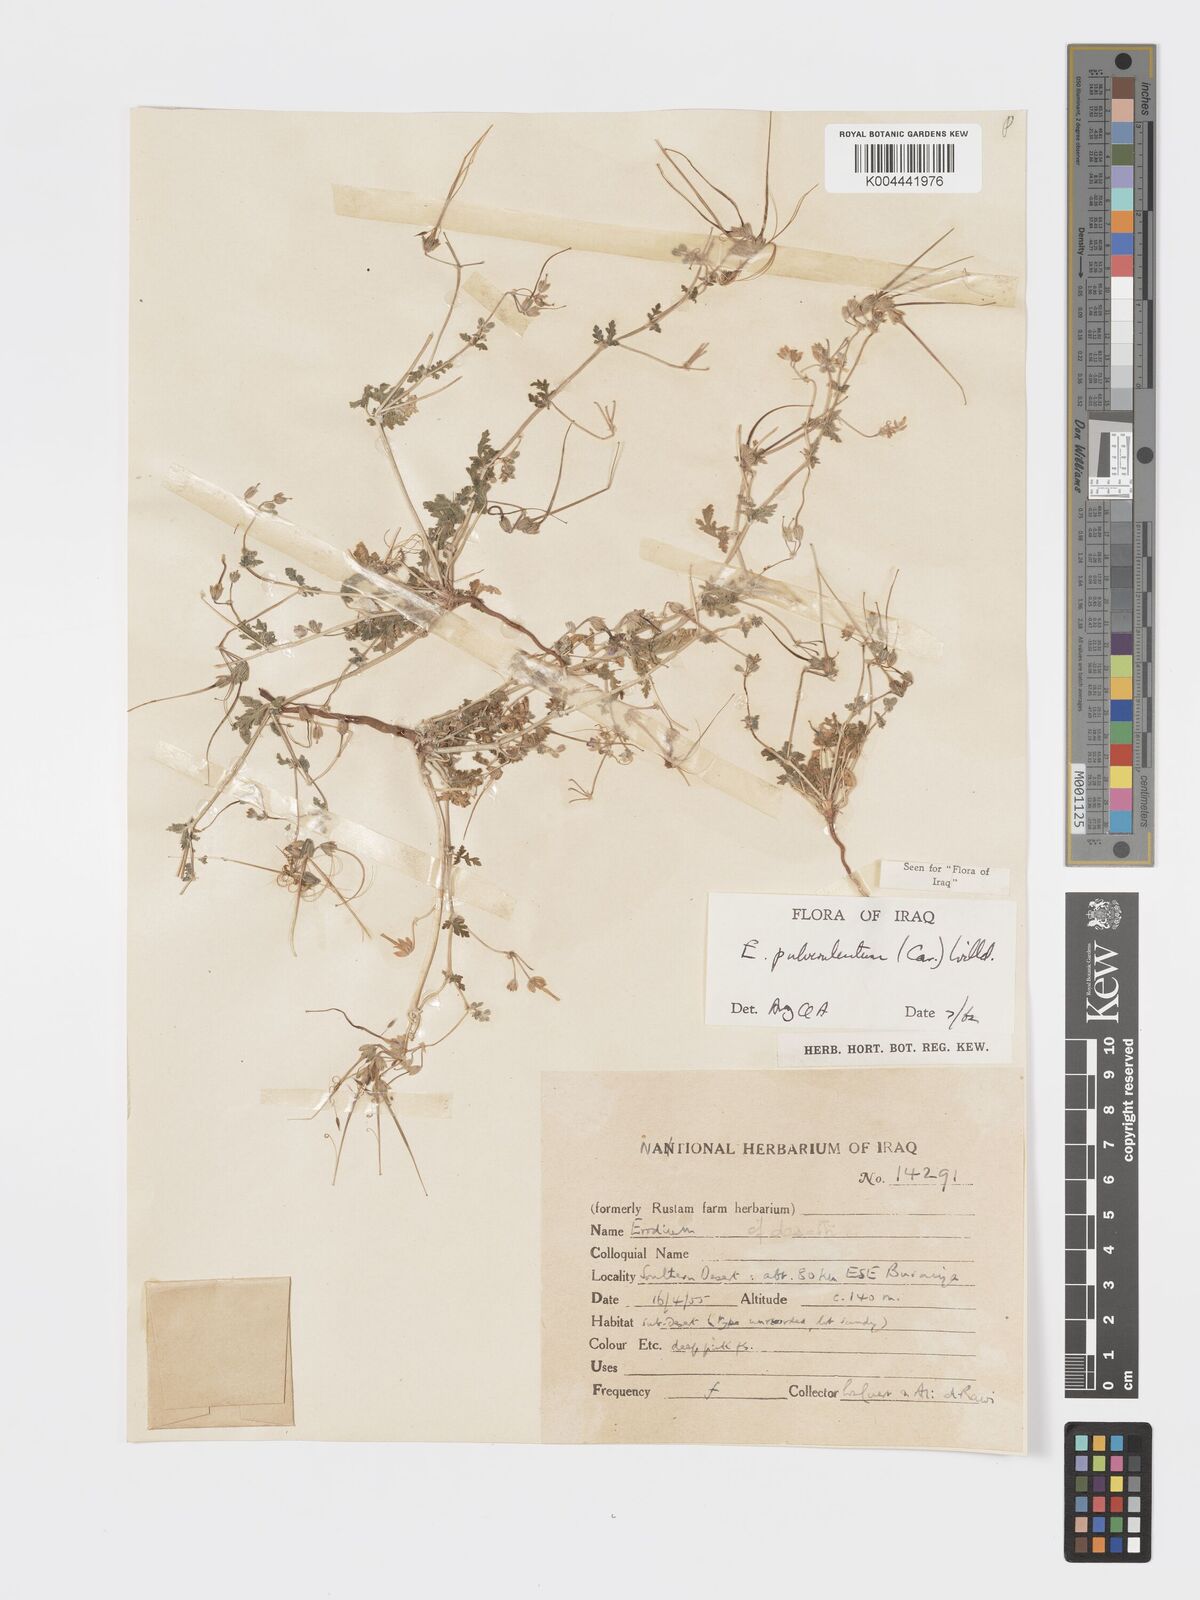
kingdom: Plantae
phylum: Tracheophyta
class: Magnoliopsida
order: Geraniales
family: Geraniaceae
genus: Erodium
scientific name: Erodium laciniatum
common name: Cutleaf stork's bill
